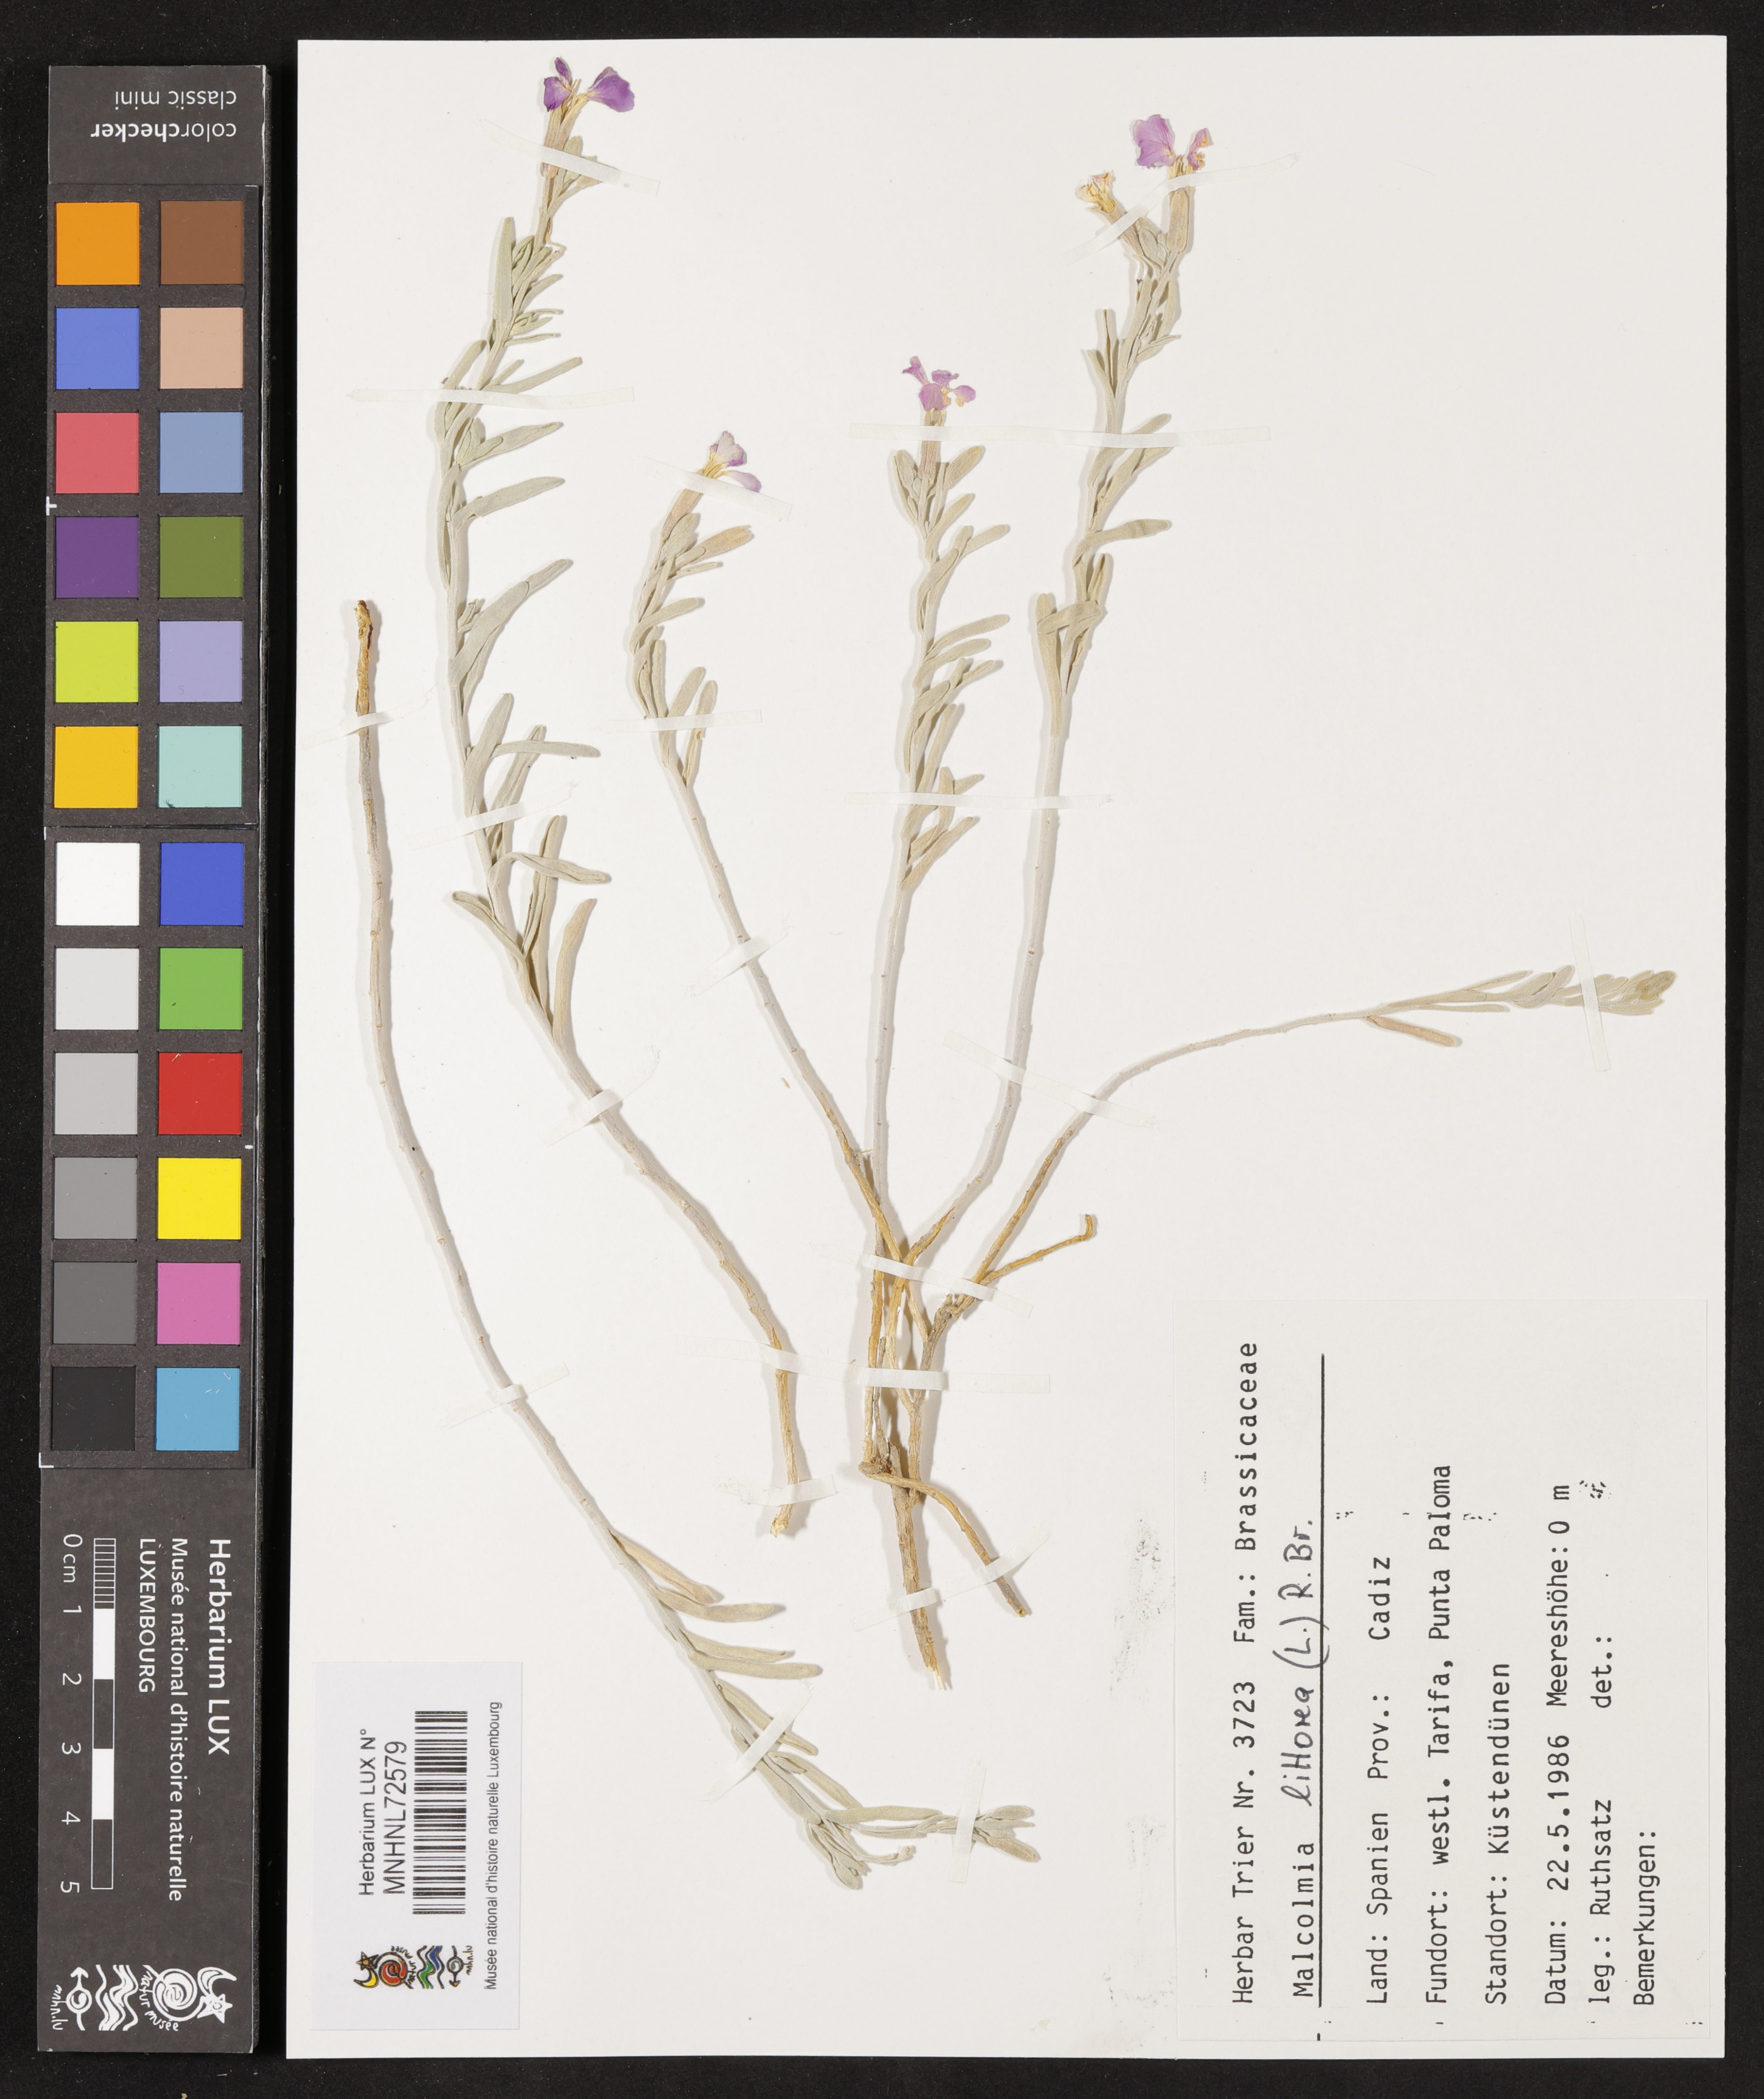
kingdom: Plantae
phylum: Tracheophyta
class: Magnoliopsida
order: Brassicales
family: Brassicaceae
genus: Marcuskochia
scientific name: Marcuskochia littorea
